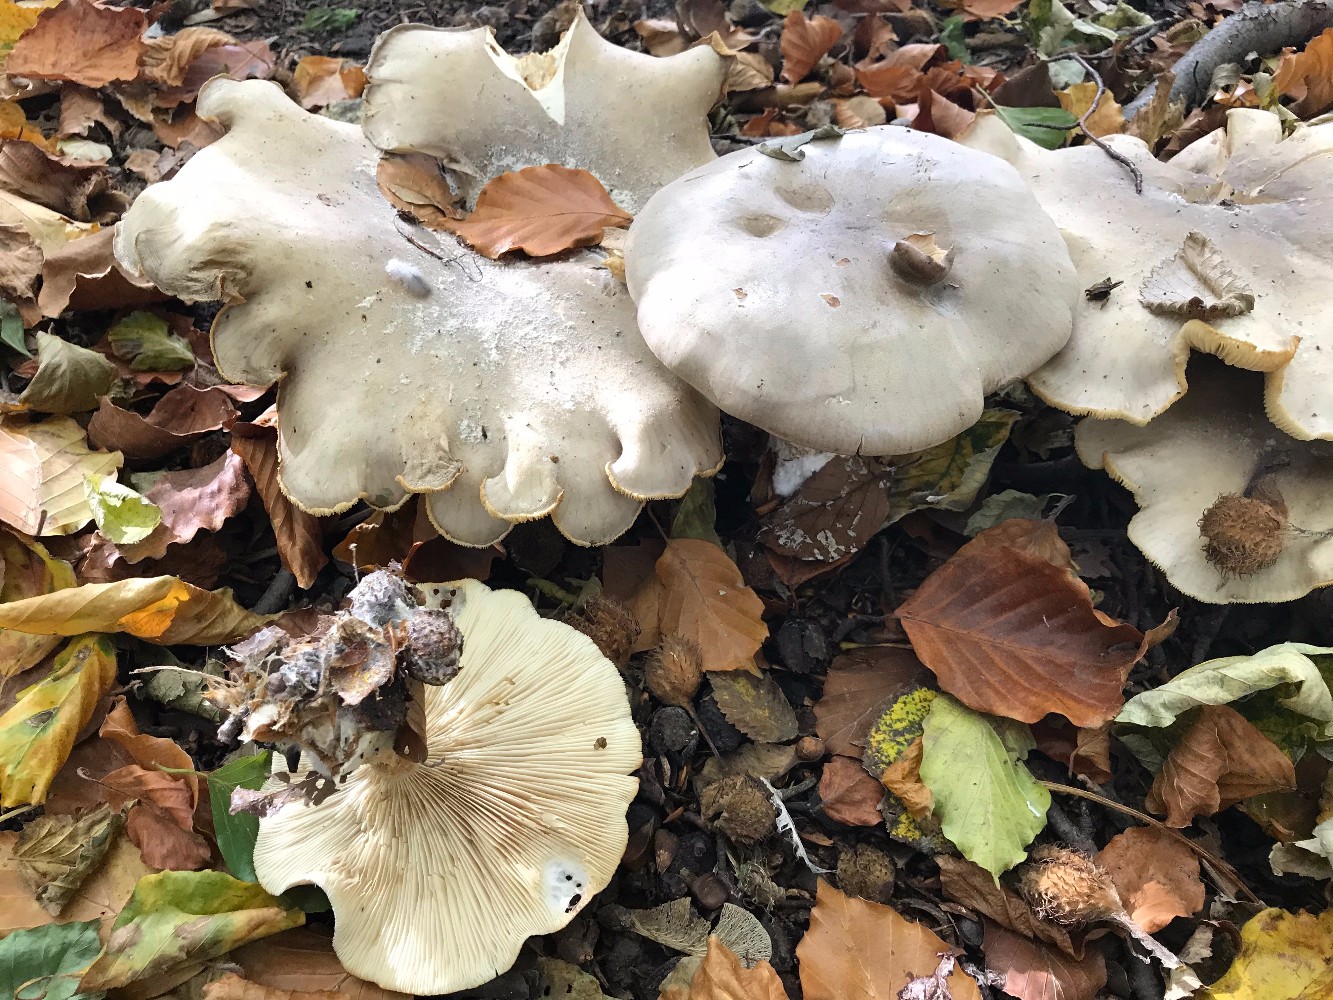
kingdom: Fungi
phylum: Basidiomycota
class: Agaricomycetes
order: Agaricales
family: Tricholomataceae
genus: Clitocybe
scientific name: Clitocybe nebularis
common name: tåge-tragthat
